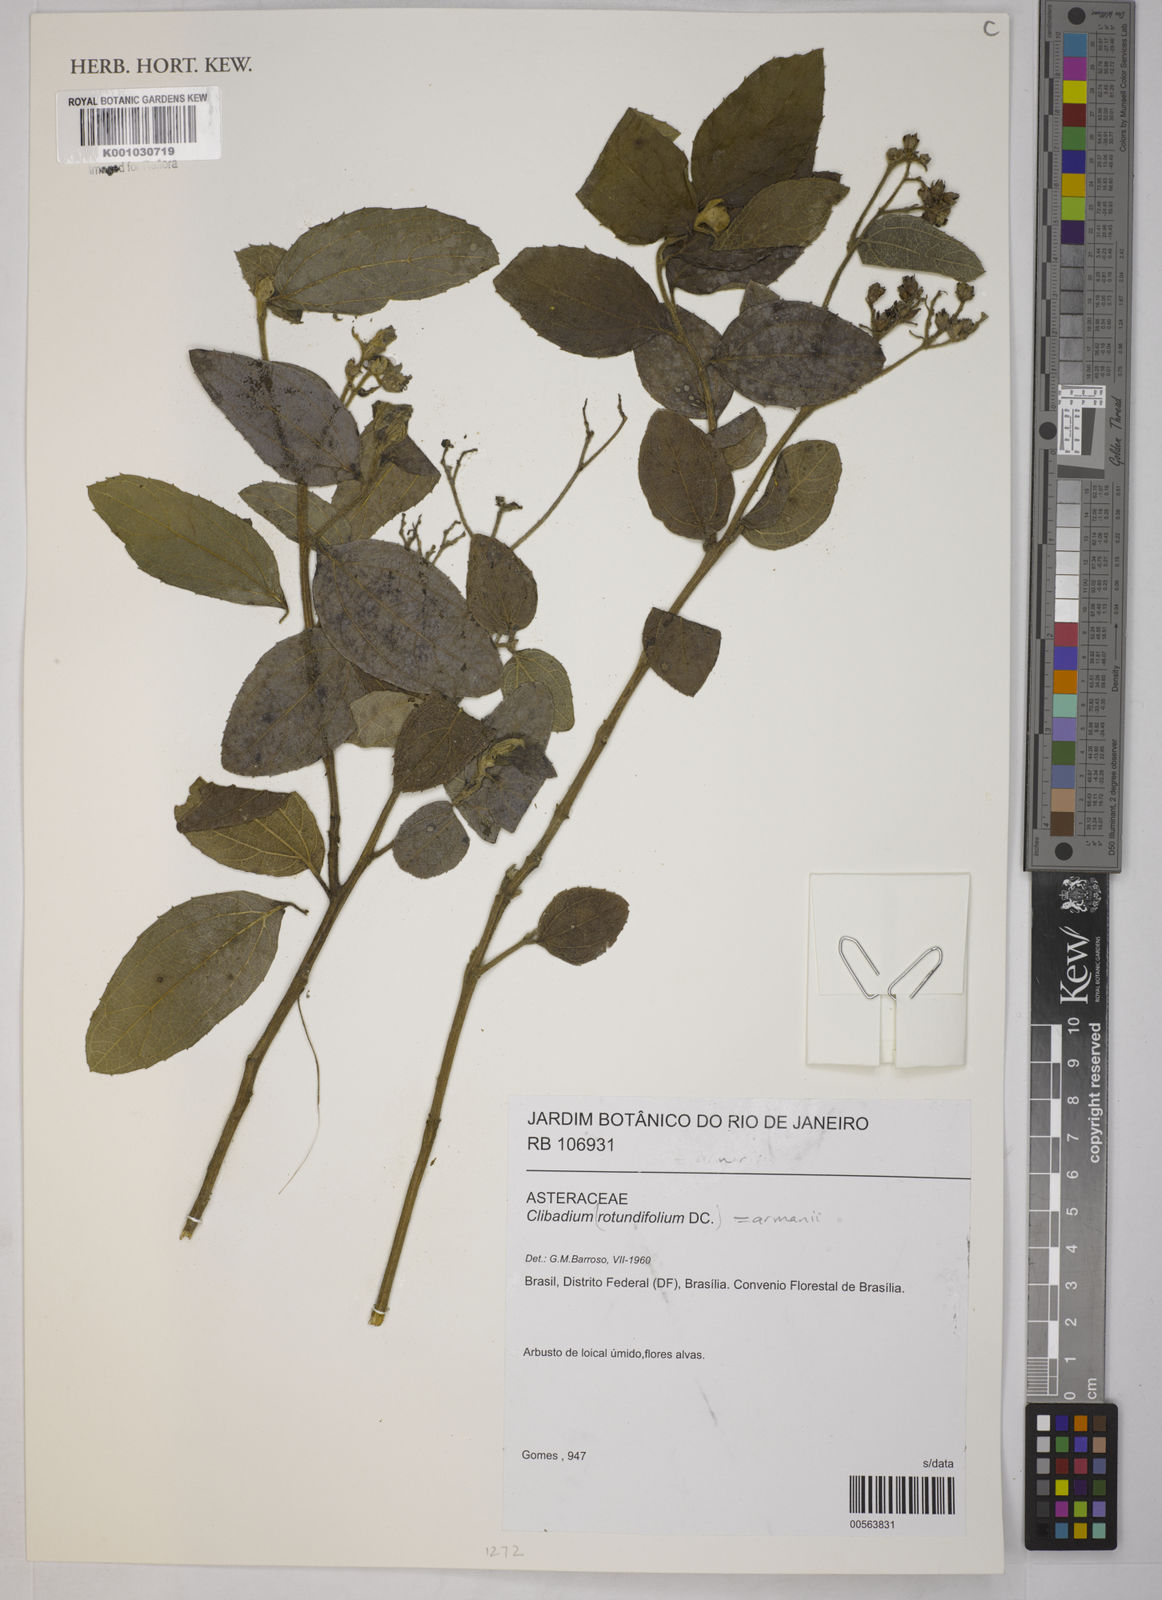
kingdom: Plantae
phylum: Tracheophyta
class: Magnoliopsida
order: Asterales
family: Asteraceae
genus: Clibadium
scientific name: Clibadium armanii
